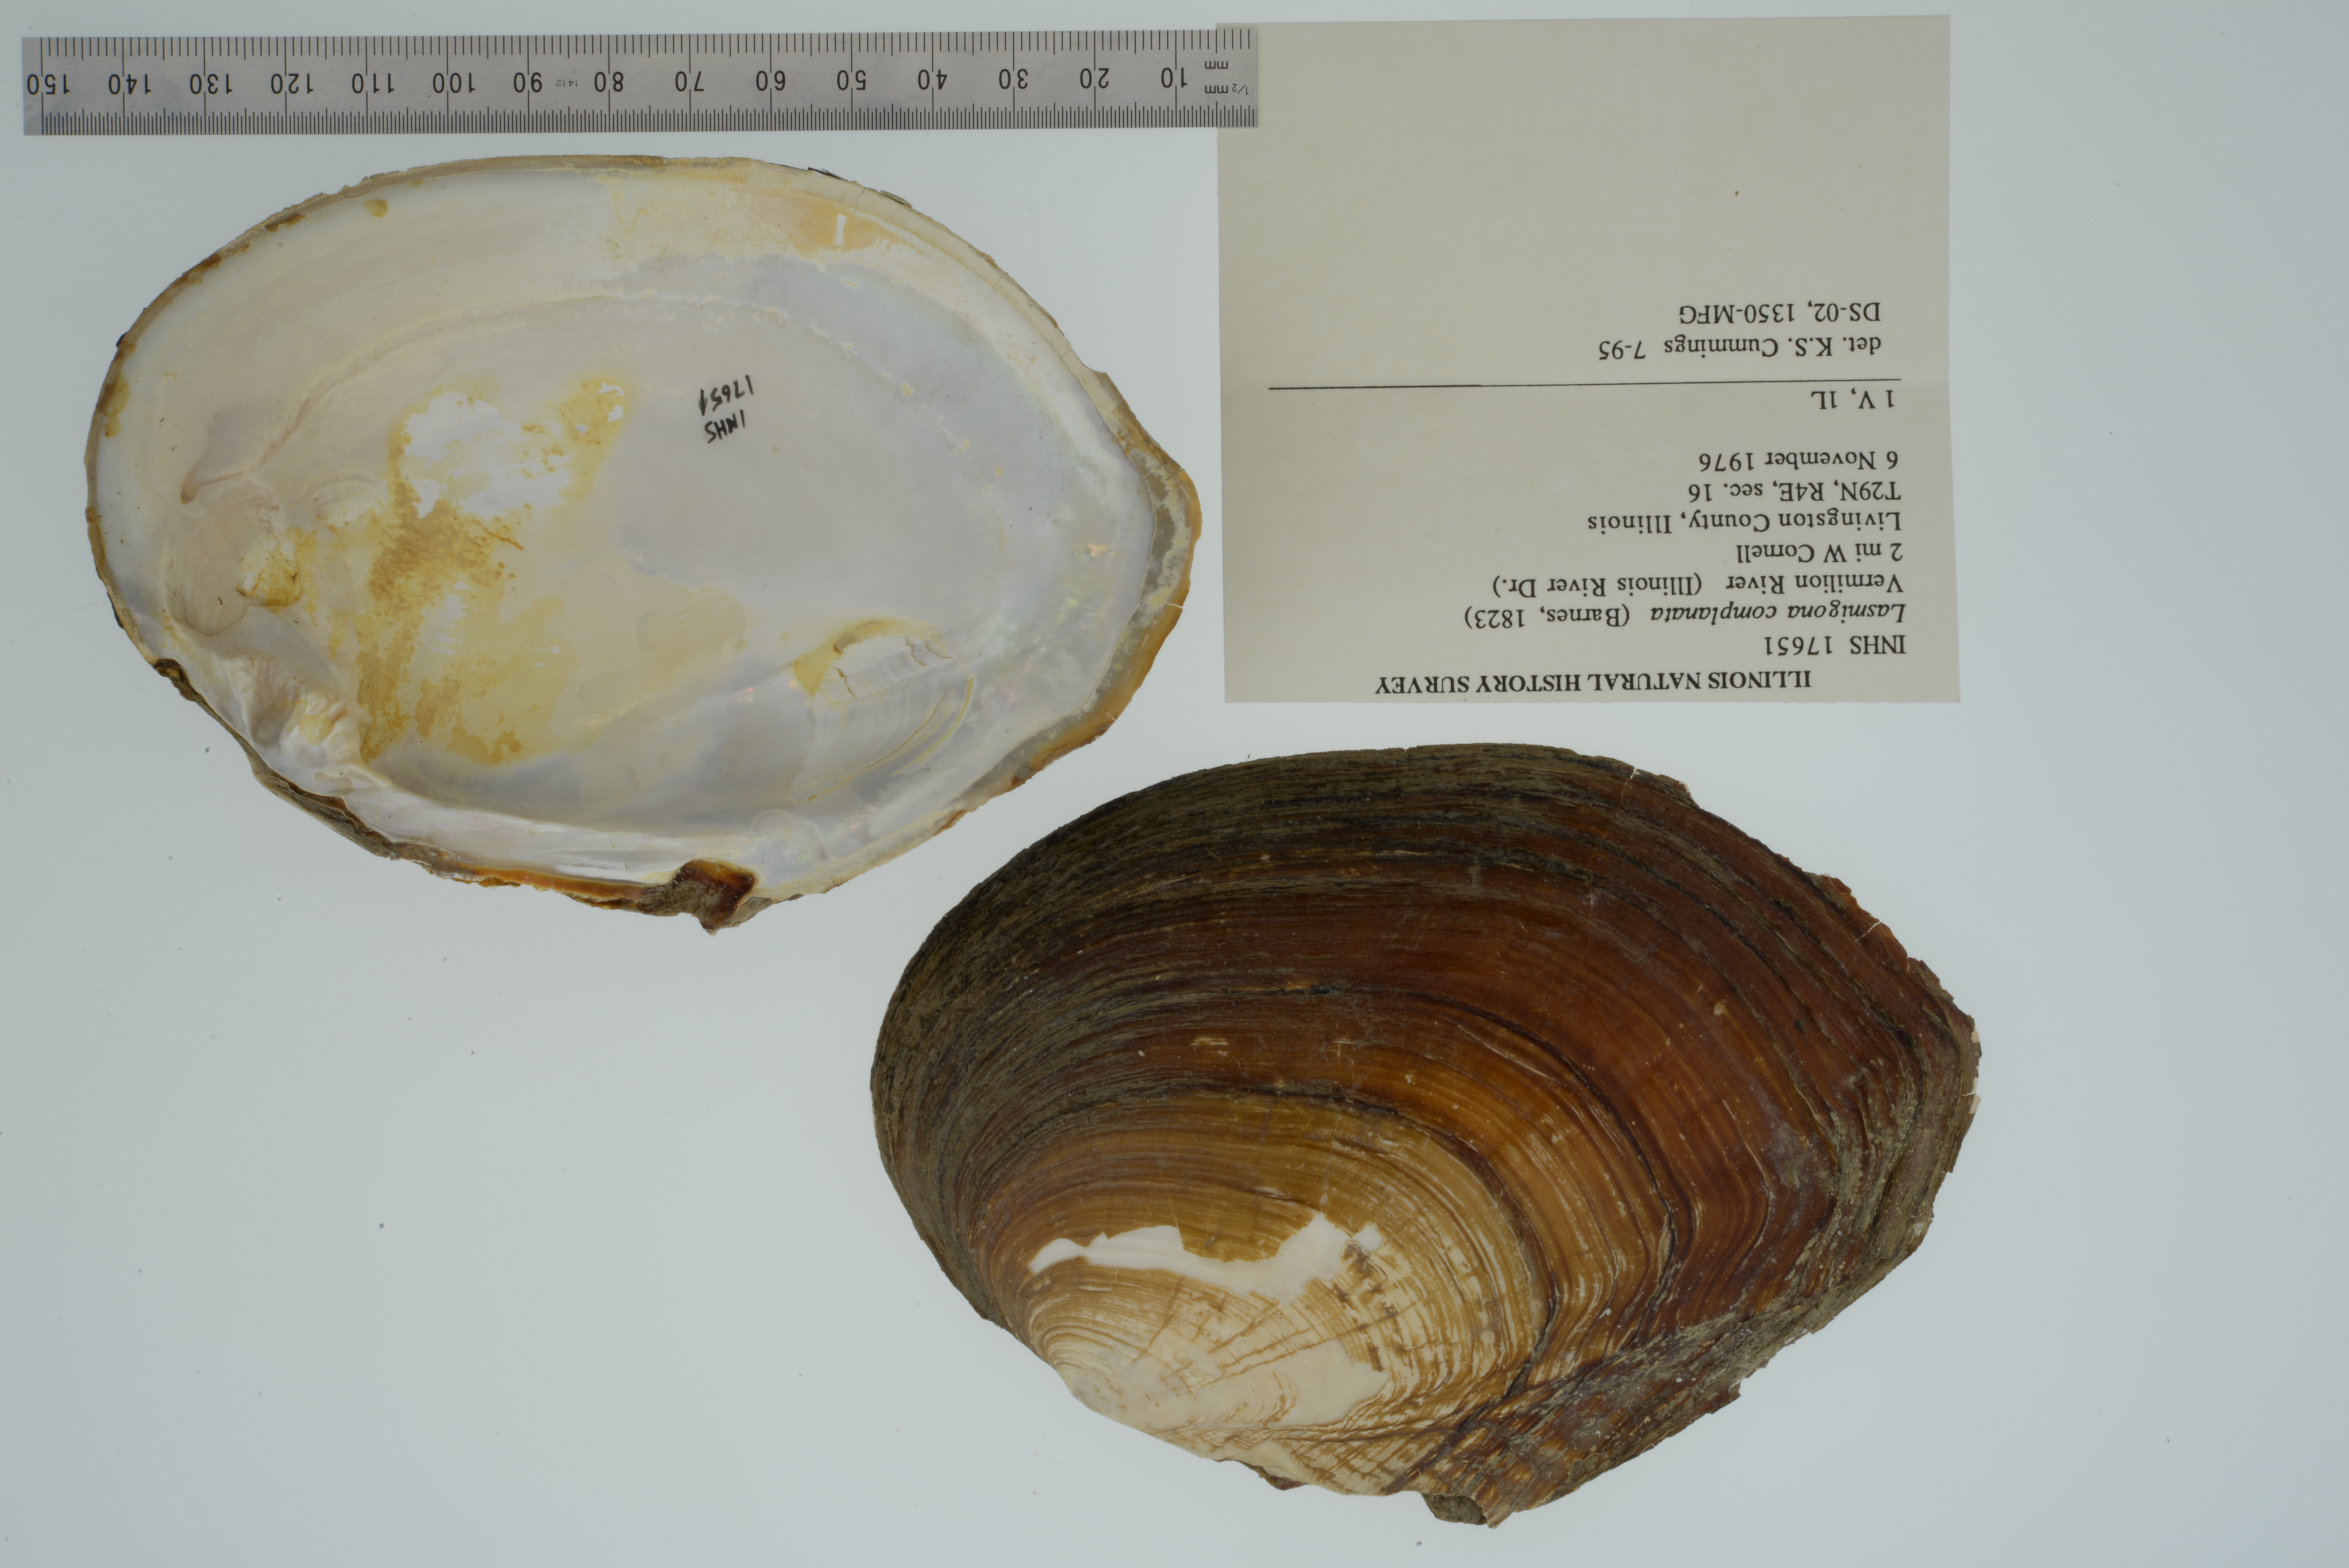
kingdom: Animalia
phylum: Mollusca
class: Bivalvia
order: Unionida
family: Unionidae
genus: Lasmigona
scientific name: Lasmigona complanata
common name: White heelsplitter
